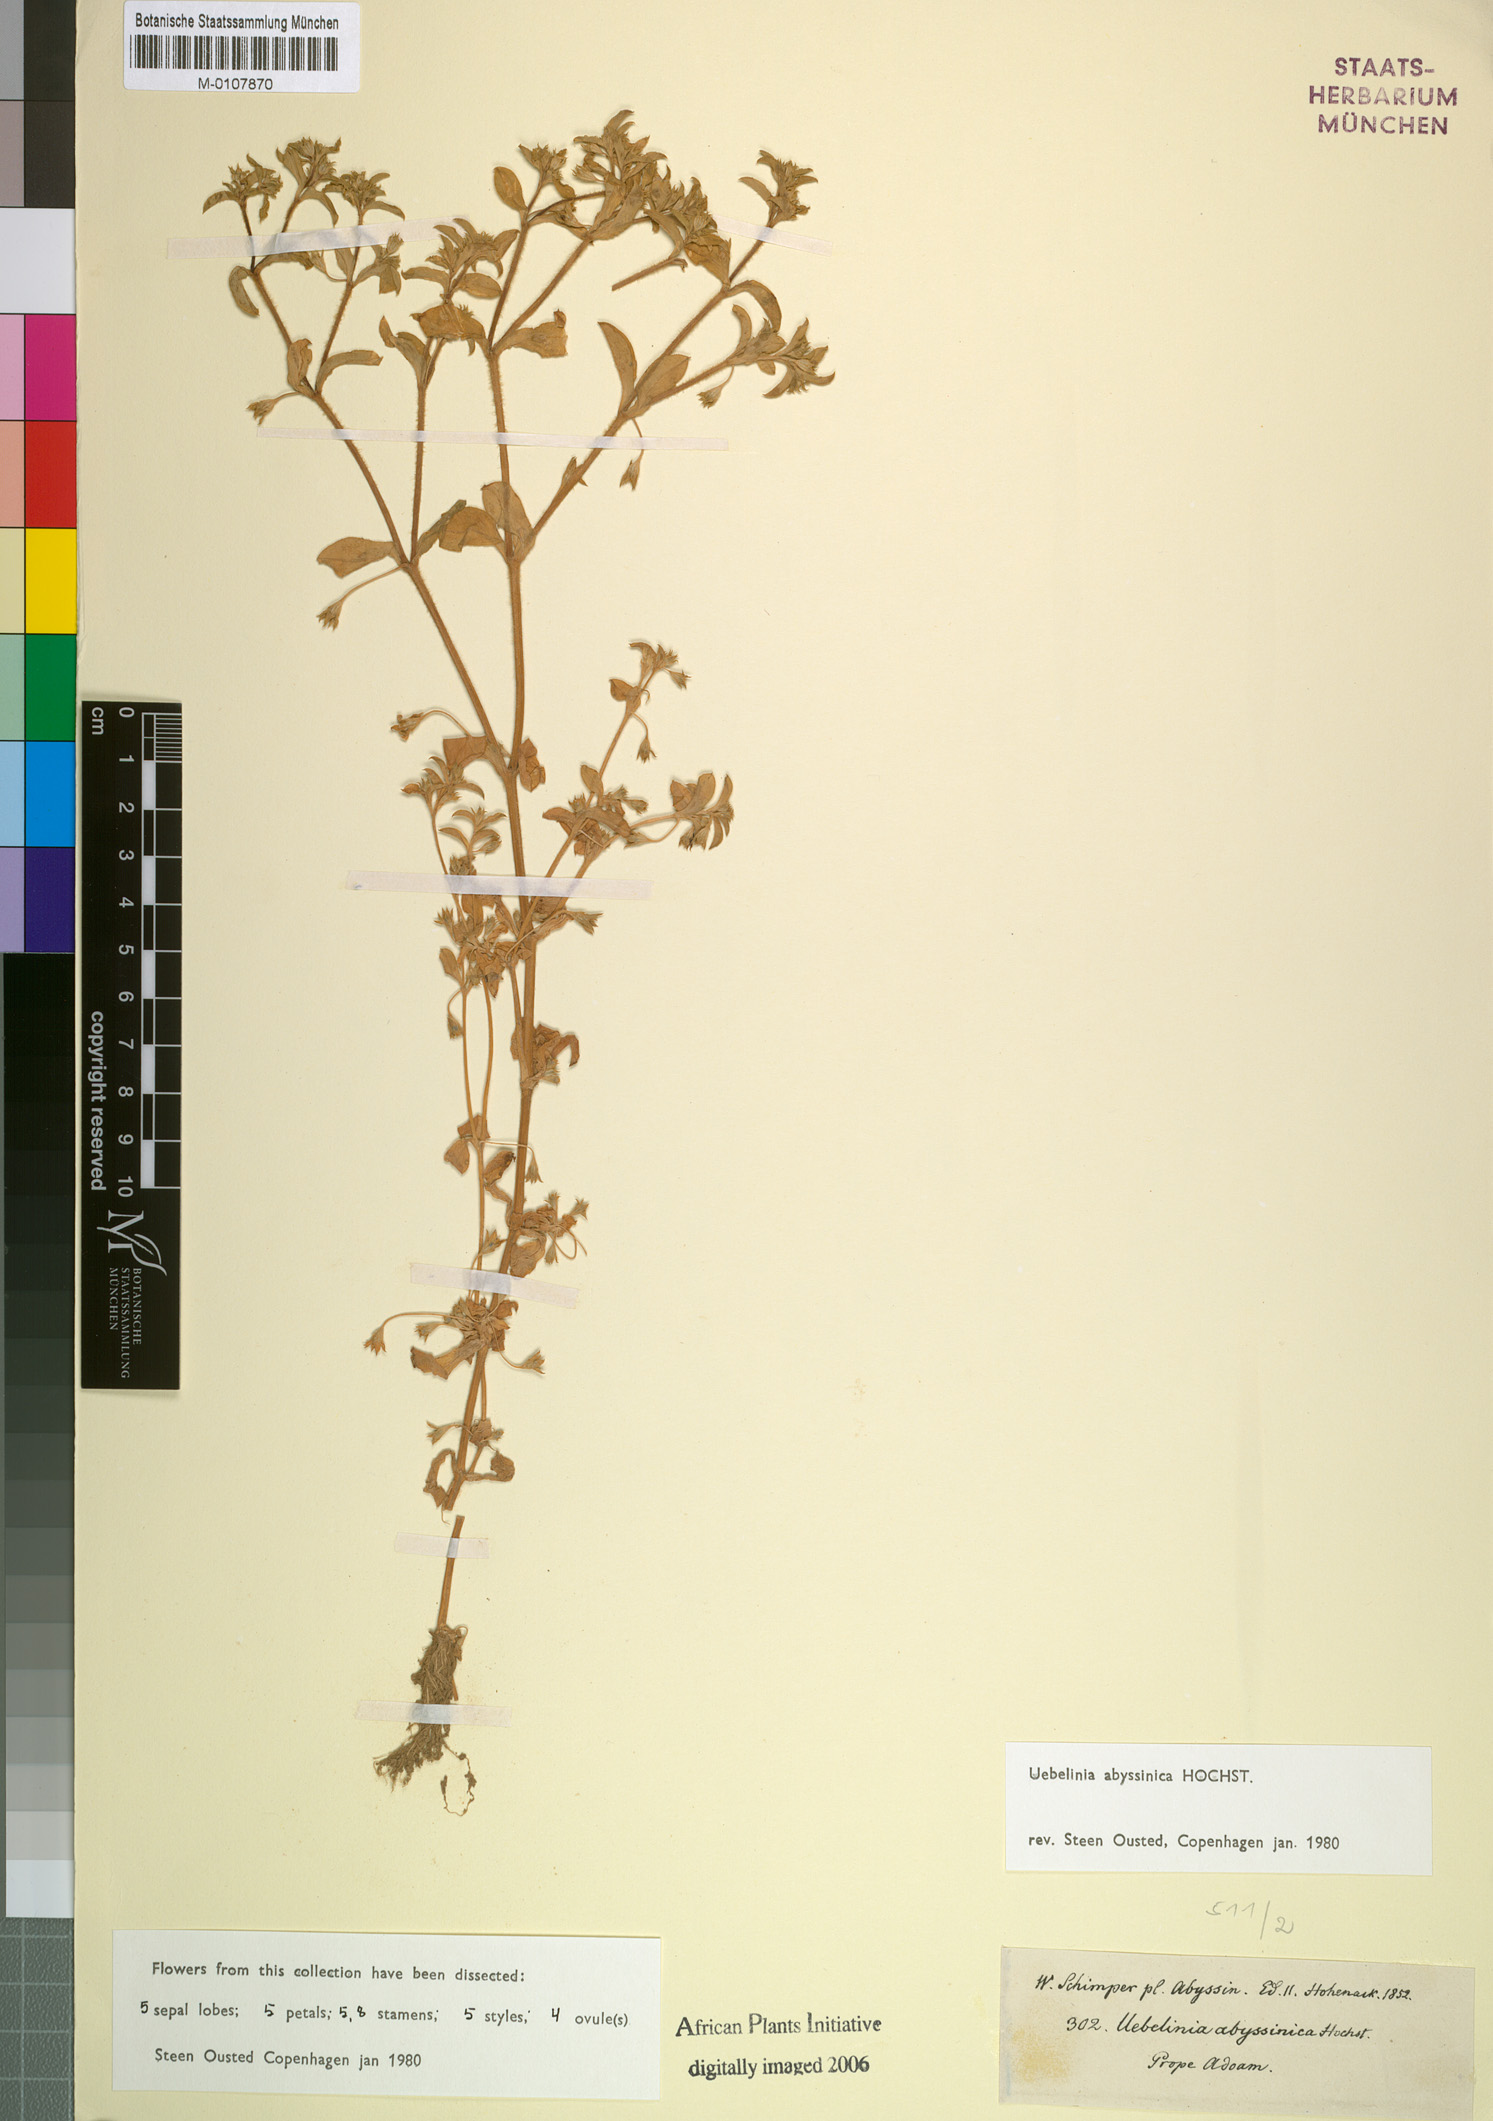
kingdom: Plantae
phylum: Tracheophyta
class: Magnoliopsida
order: Caryophyllales
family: Caryophyllaceae
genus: Silene
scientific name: Silene abyssinica
